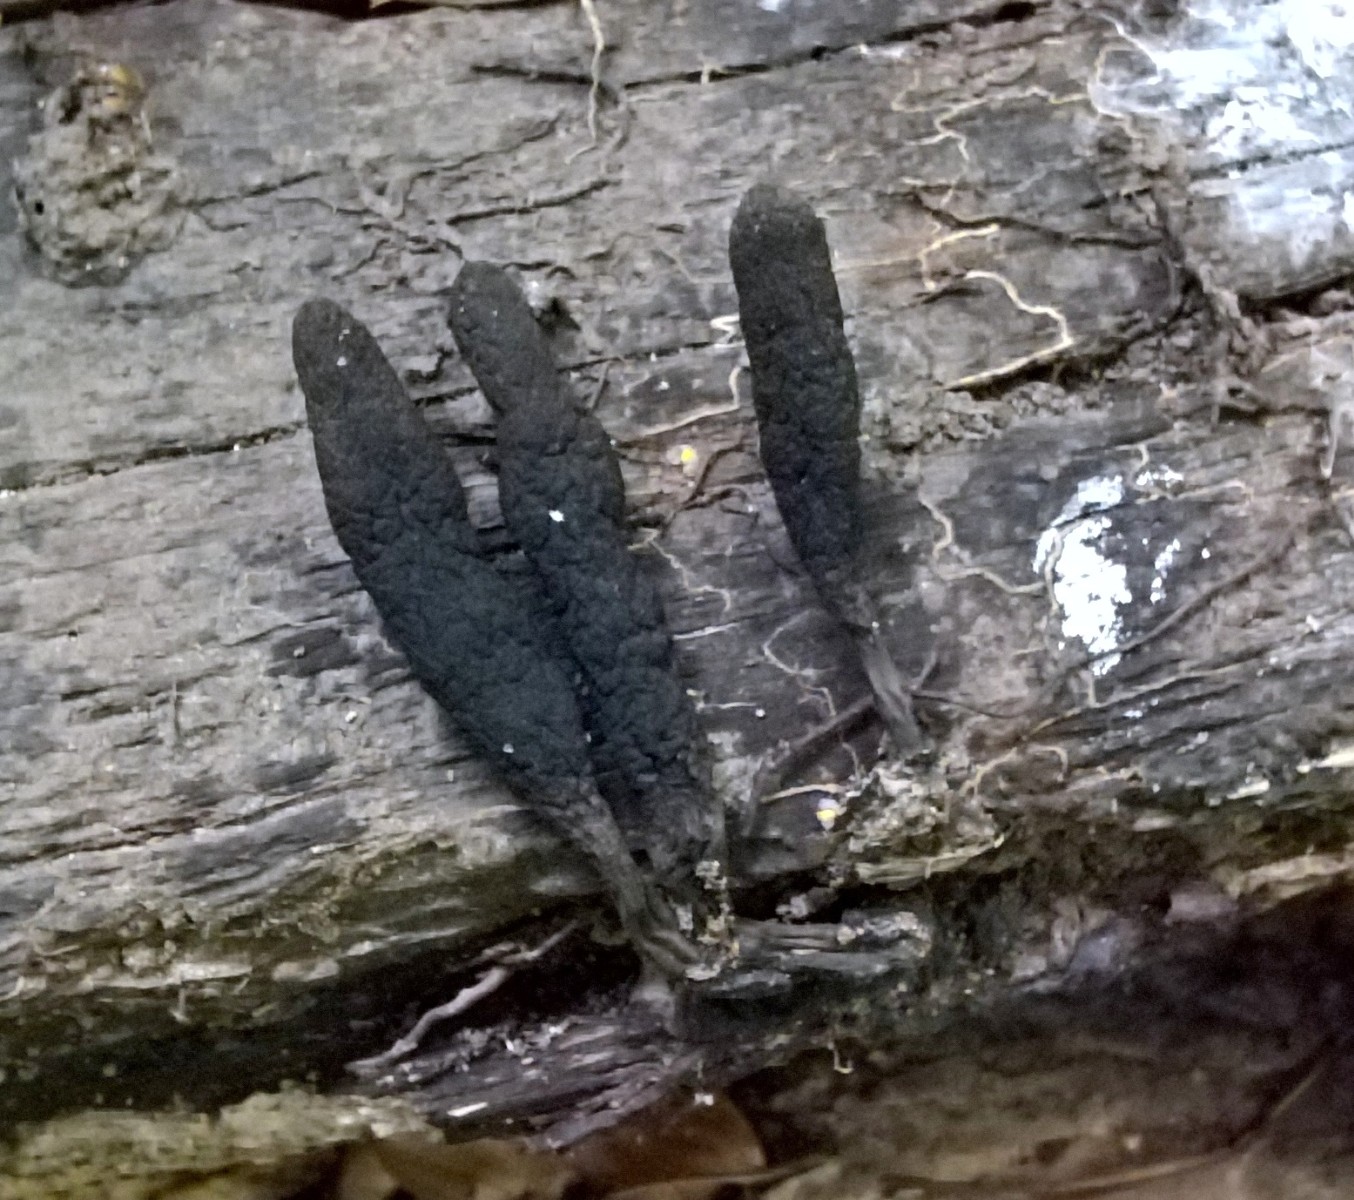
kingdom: Fungi
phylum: Ascomycota
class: Sordariomycetes
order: Xylariales
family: Xylariaceae
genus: Xylaria
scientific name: Xylaria longipes
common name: slank stødsvamp
